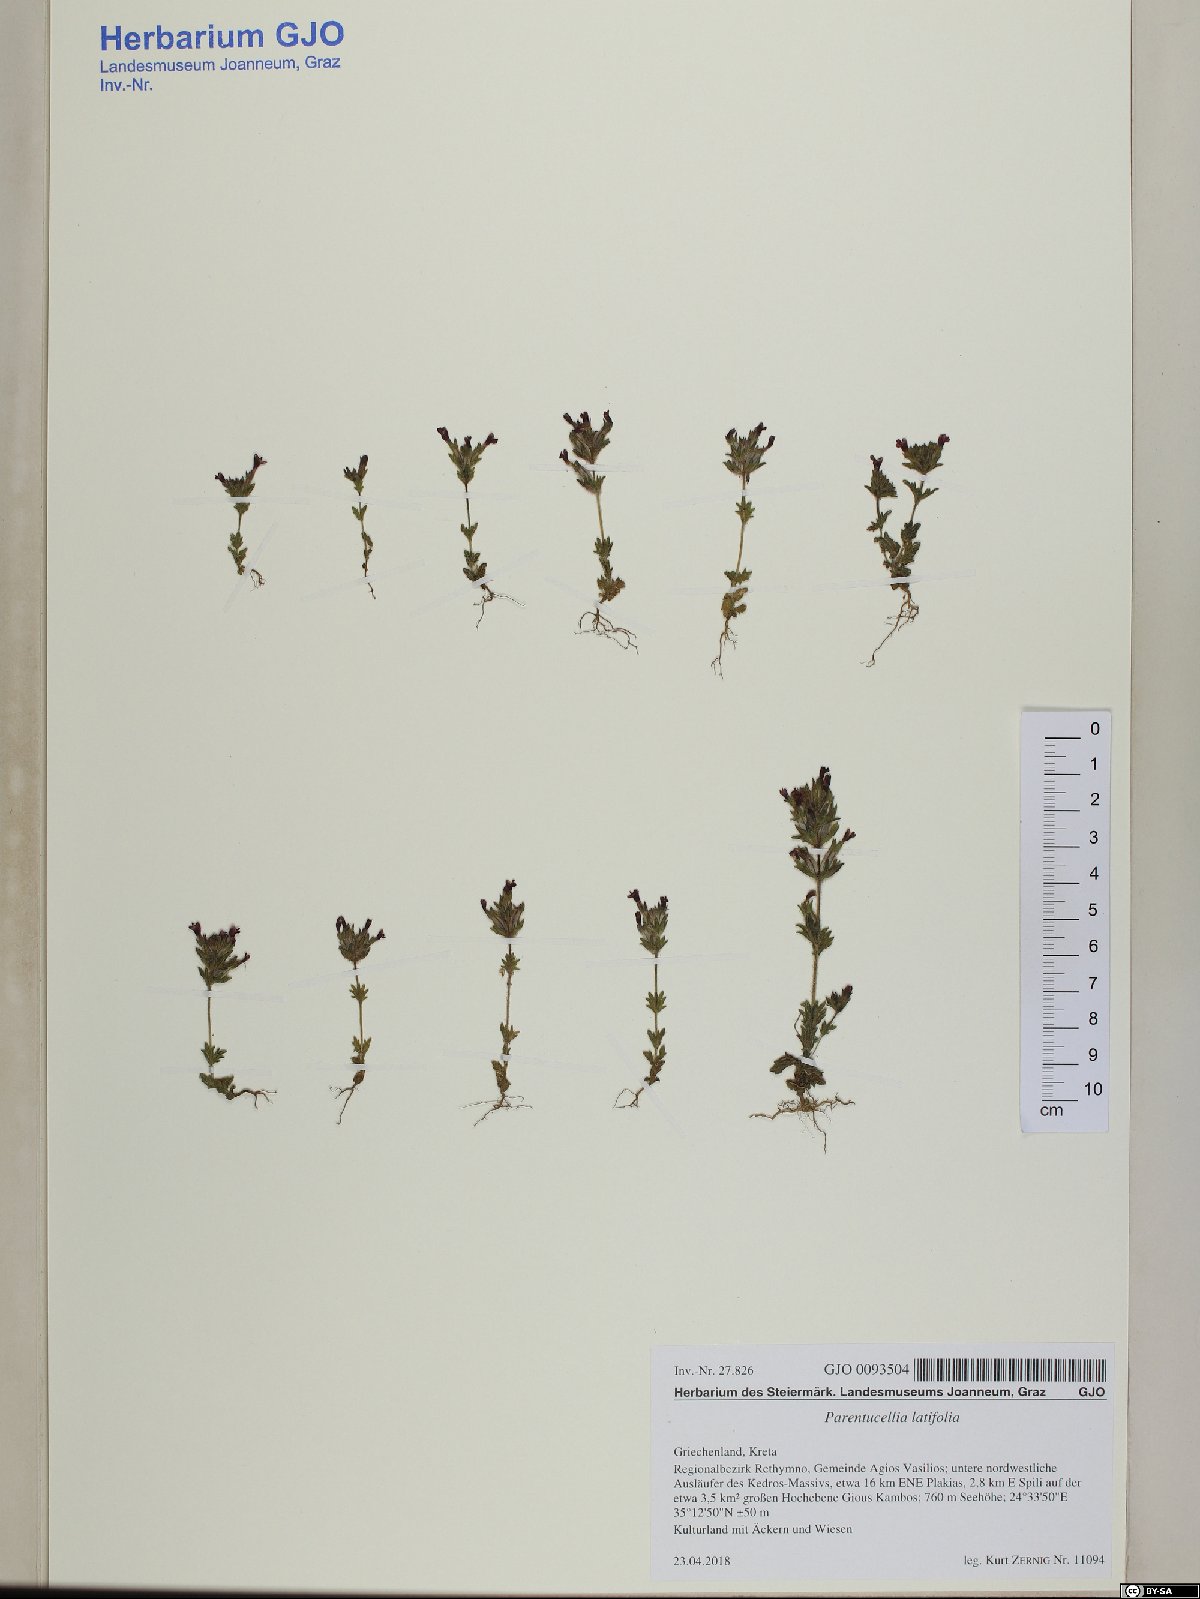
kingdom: Plantae
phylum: Tracheophyta
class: Magnoliopsida
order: Lamiales
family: Orobanchaceae
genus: Parentucellia
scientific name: Parentucellia latifolia
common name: Broadleaf glandweed
